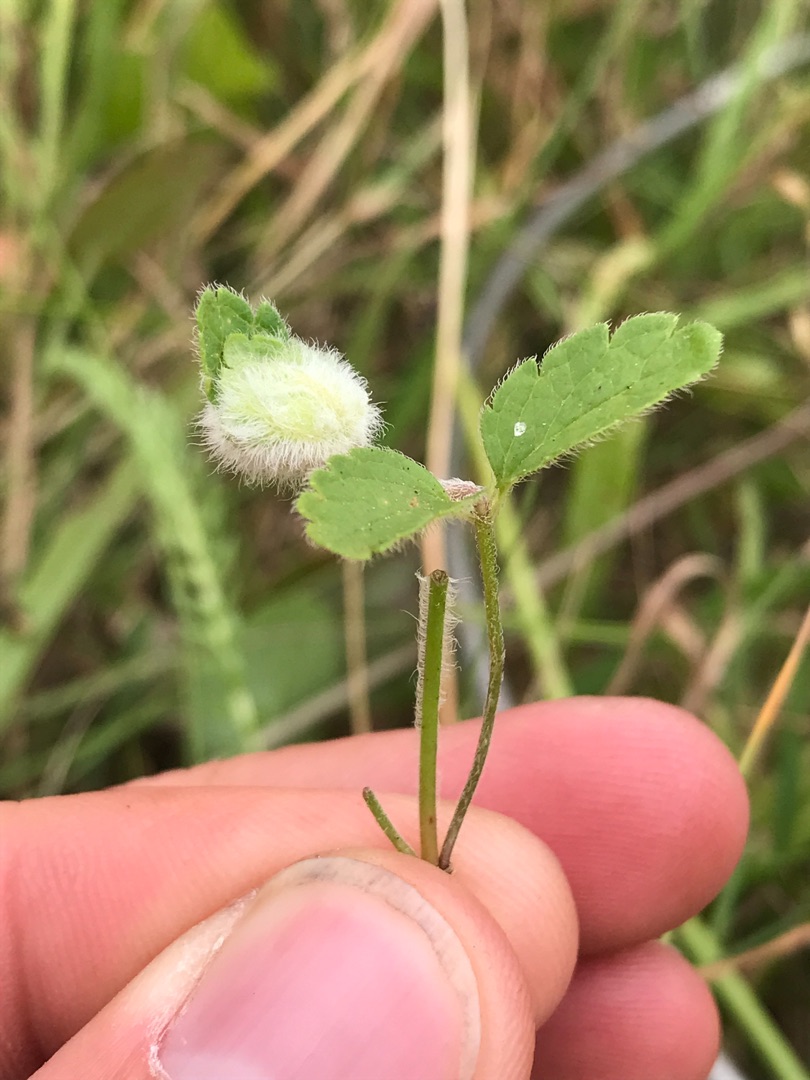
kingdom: Animalia
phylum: Arthropoda
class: Insecta
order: Diptera
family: Cecidomyiidae
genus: Jaapiella
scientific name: Jaapiella veronicae
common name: Ærenprisgalmyg
